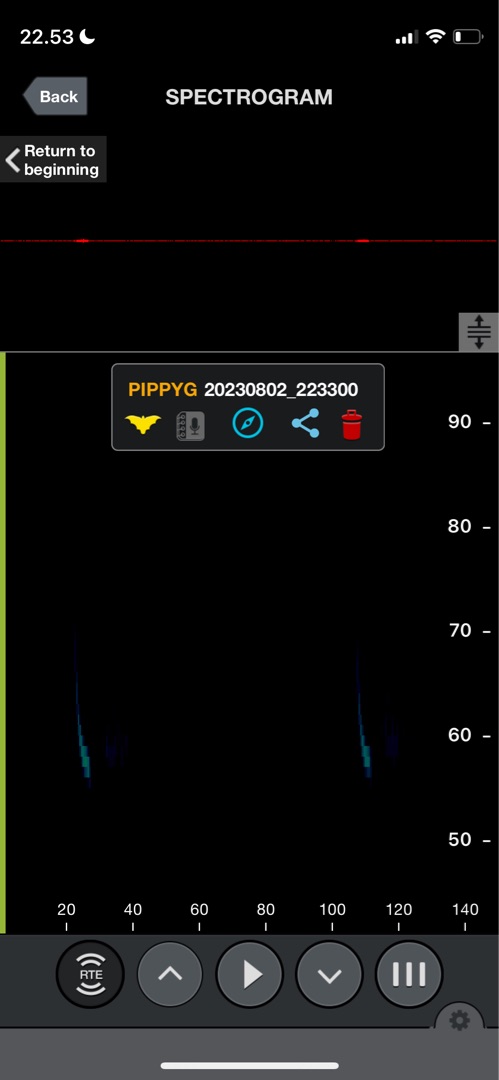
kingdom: Animalia
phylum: Chordata
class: Mammalia
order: Chiroptera
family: Vespertilionidae
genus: Pipistrellus
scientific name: Pipistrellus pygmaeus
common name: Dværgflagermus
